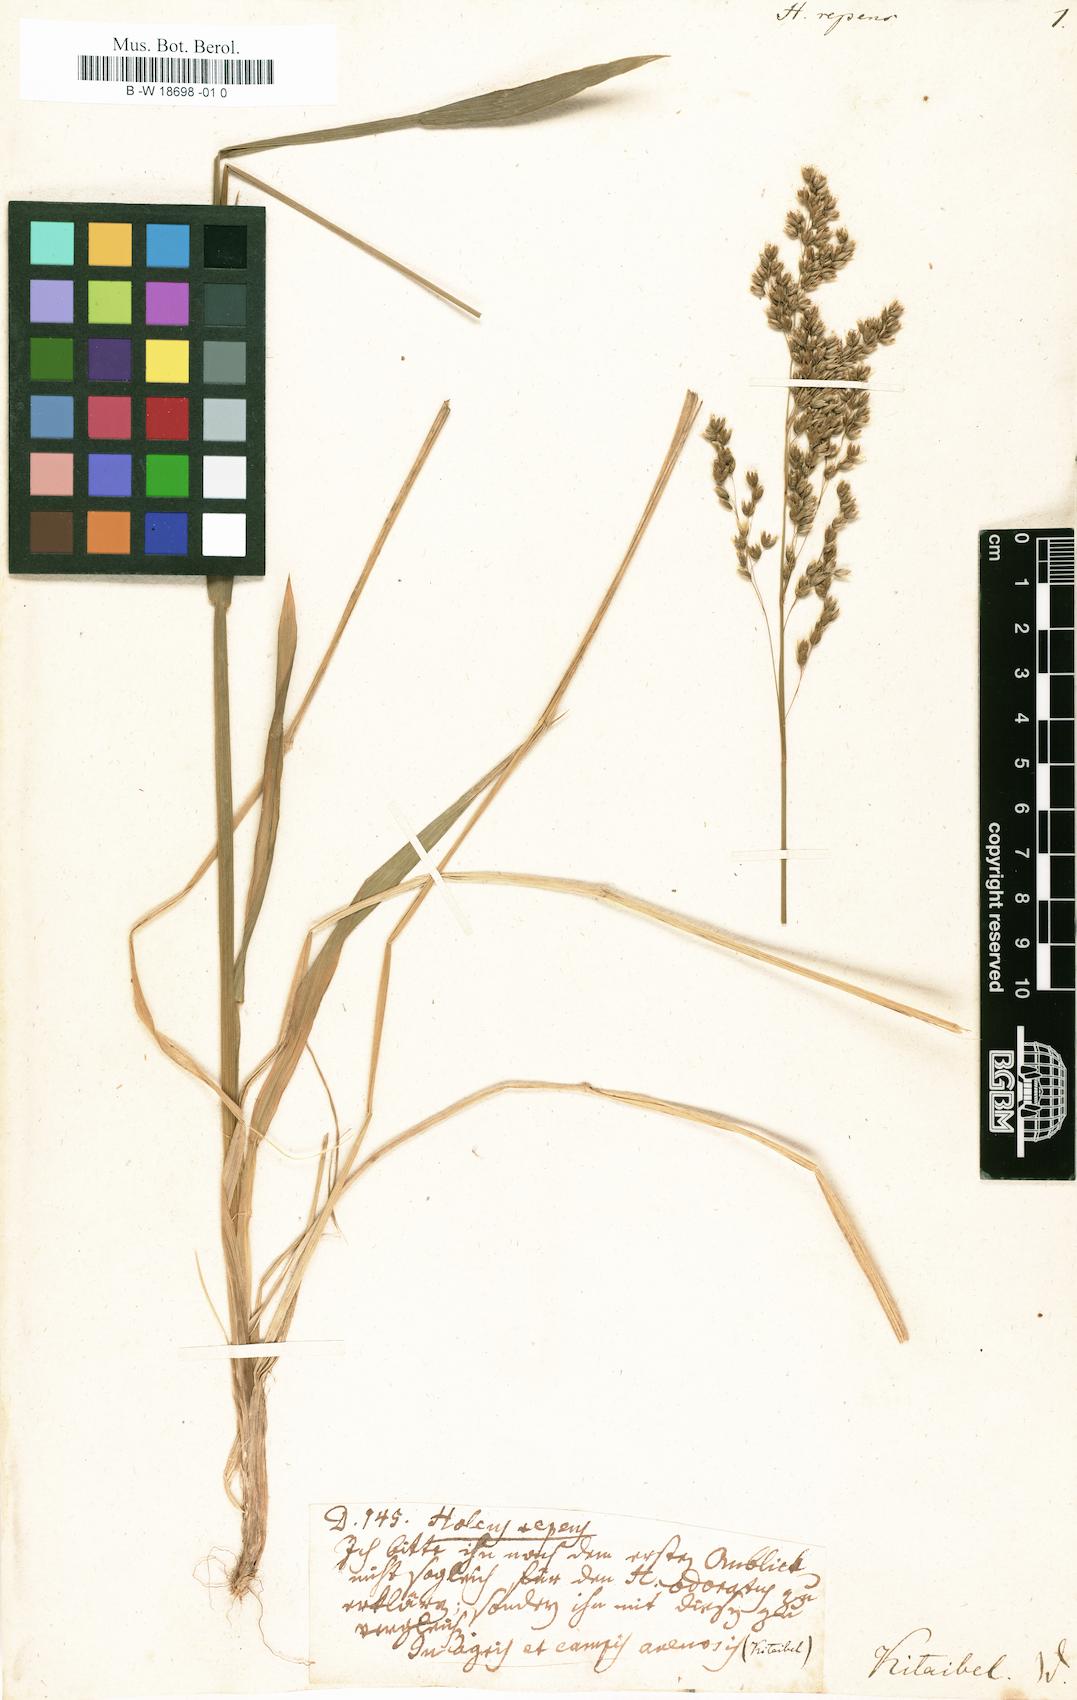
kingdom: Plantae
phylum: Tracheophyta
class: Liliopsida
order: Poales
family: Poaceae
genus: Anthoxanthum
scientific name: Anthoxanthum repens
